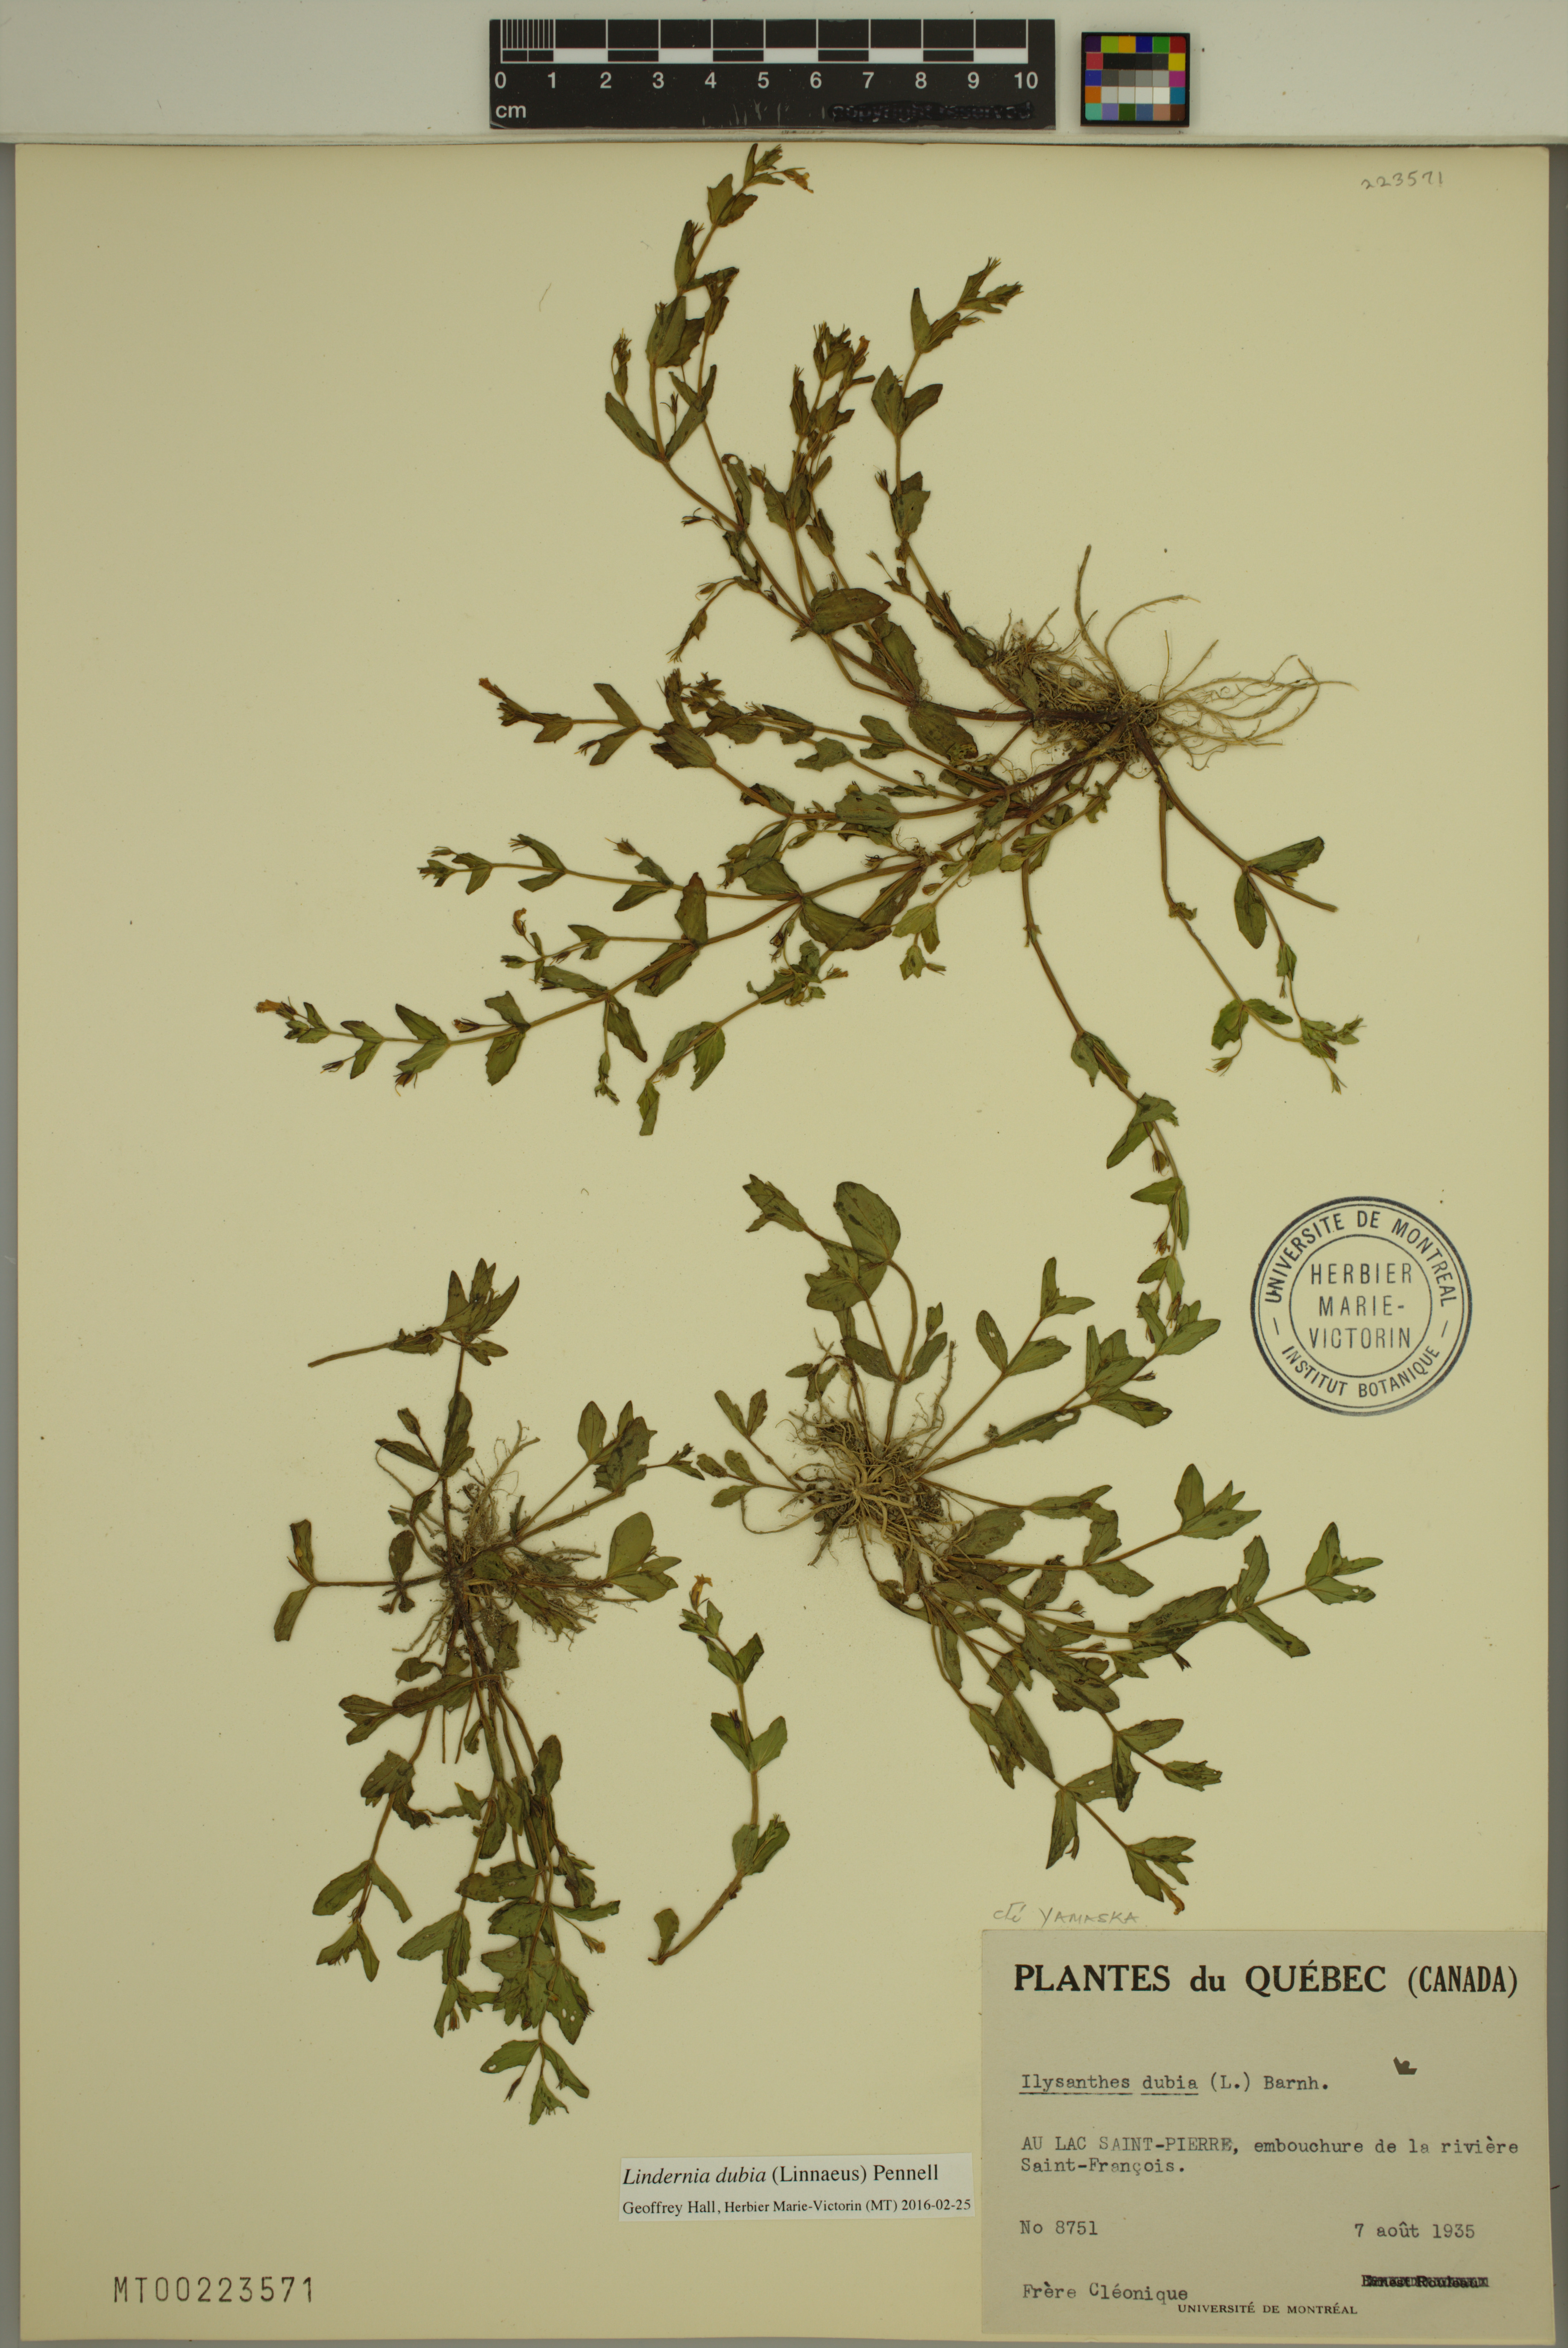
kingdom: Plantae
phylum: Tracheophyta
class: Magnoliopsida
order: Lamiales
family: Linderniaceae
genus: Lindernia
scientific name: Lindernia dubia
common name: Annual false pimpernel
